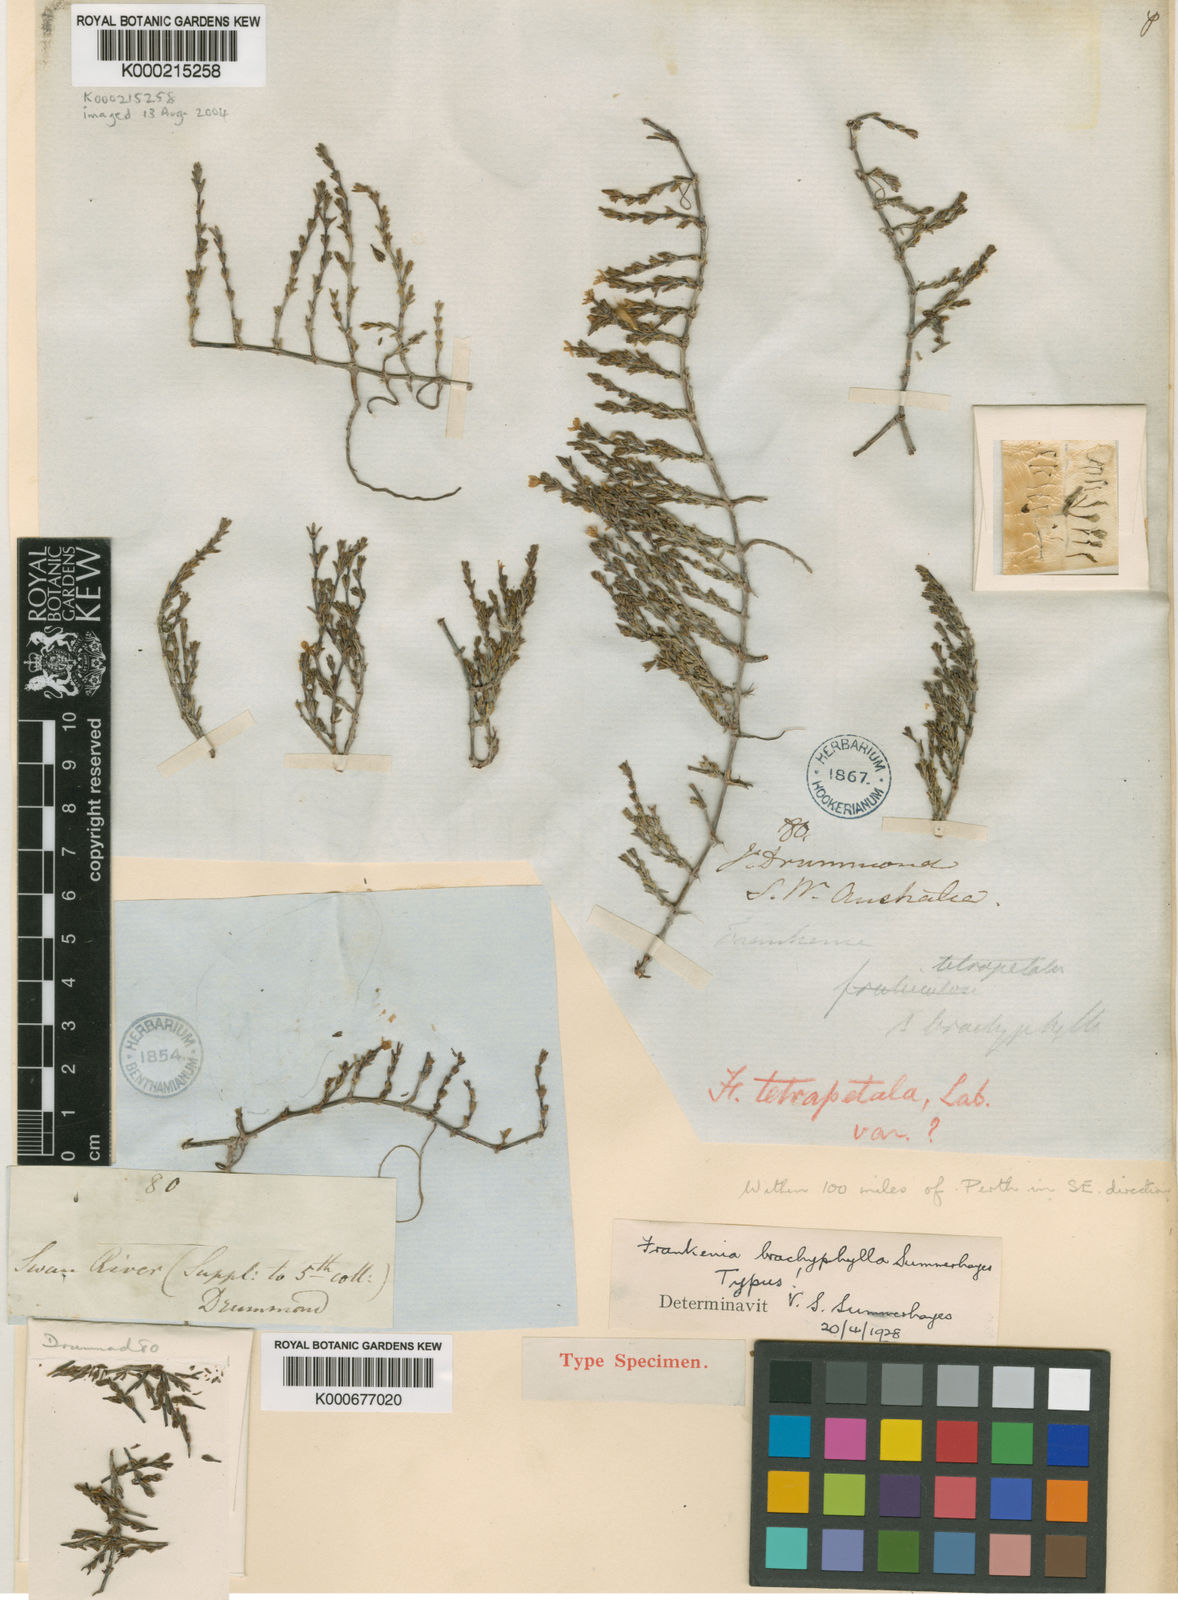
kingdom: Plantae
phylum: Tracheophyta
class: Magnoliopsida
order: Caryophyllales
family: Frankeniaceae
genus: Frankenia
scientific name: Frankenia brachyphylla
